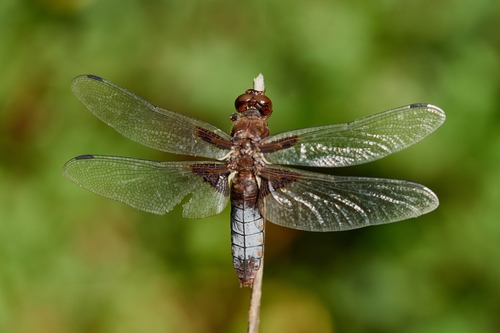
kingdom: Animalia
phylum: Arthropoda
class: Insecta
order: Odonata
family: Libellulidae
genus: Libellula
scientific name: Libellula depressa
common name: Broad-bodied chaser
